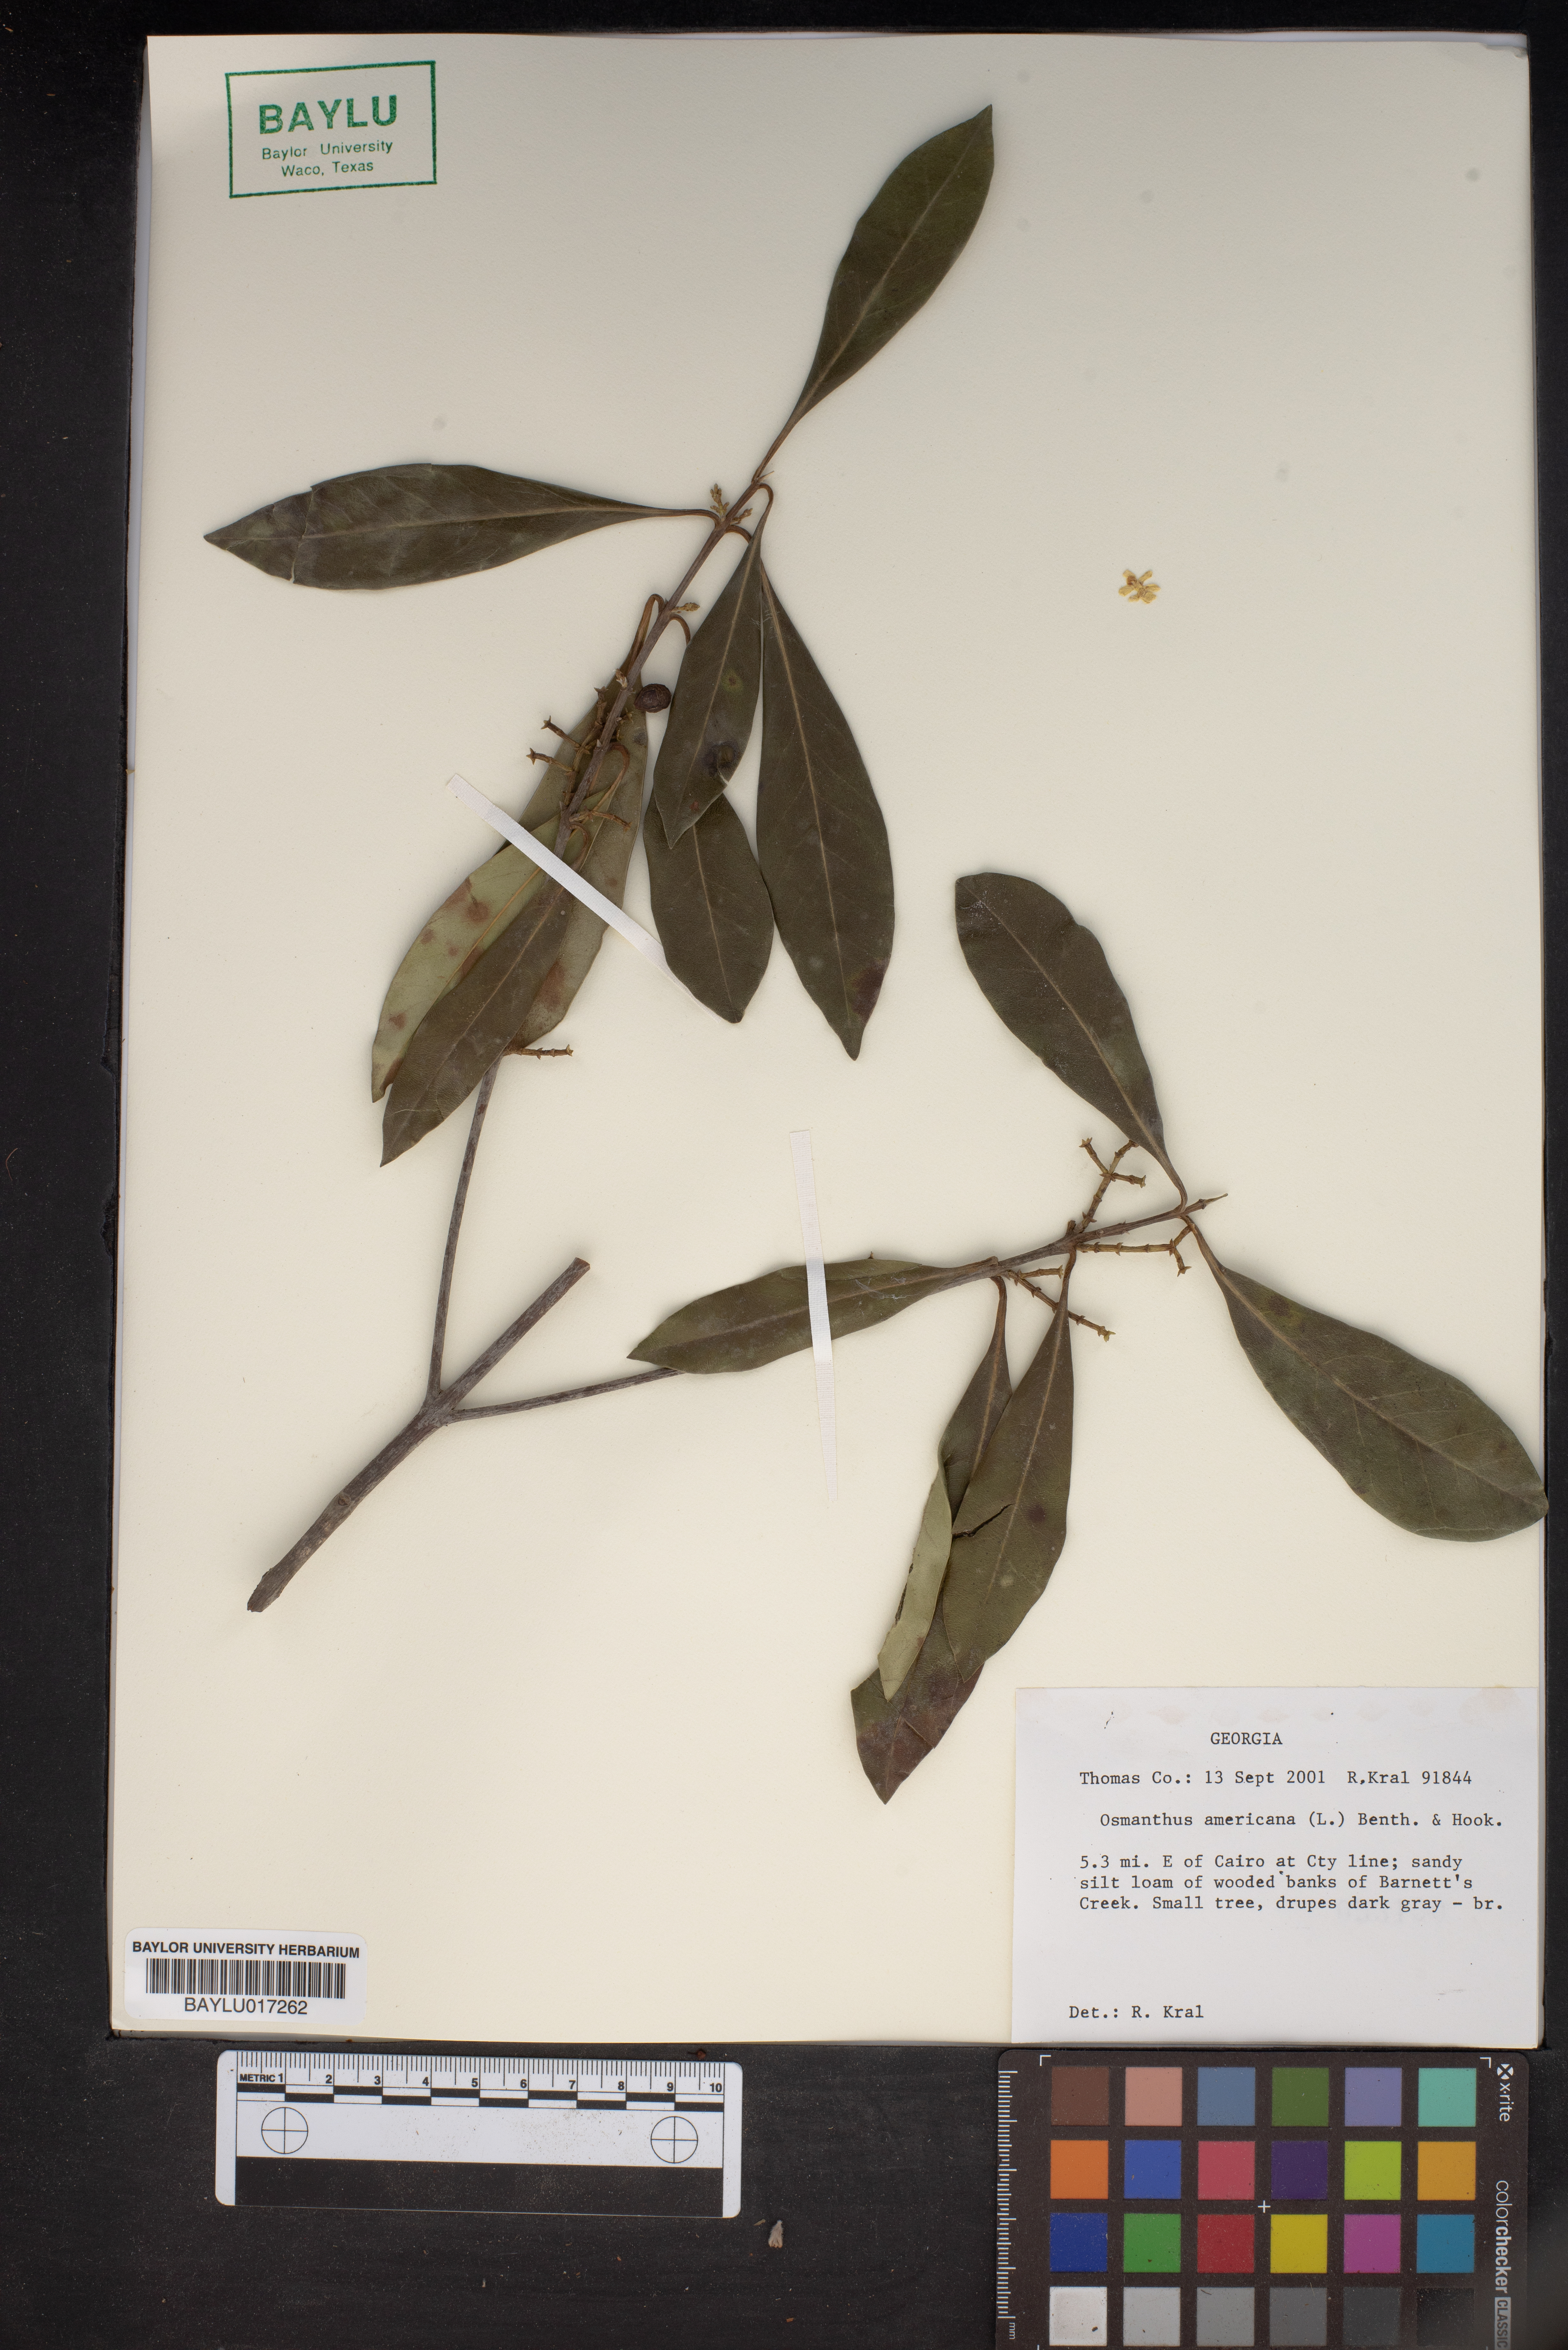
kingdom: Plantae
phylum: Tracheophyta
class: Magnoliopsida
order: Lamiales
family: Oleaceae
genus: Osmanthus
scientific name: Osmanthus americanus
